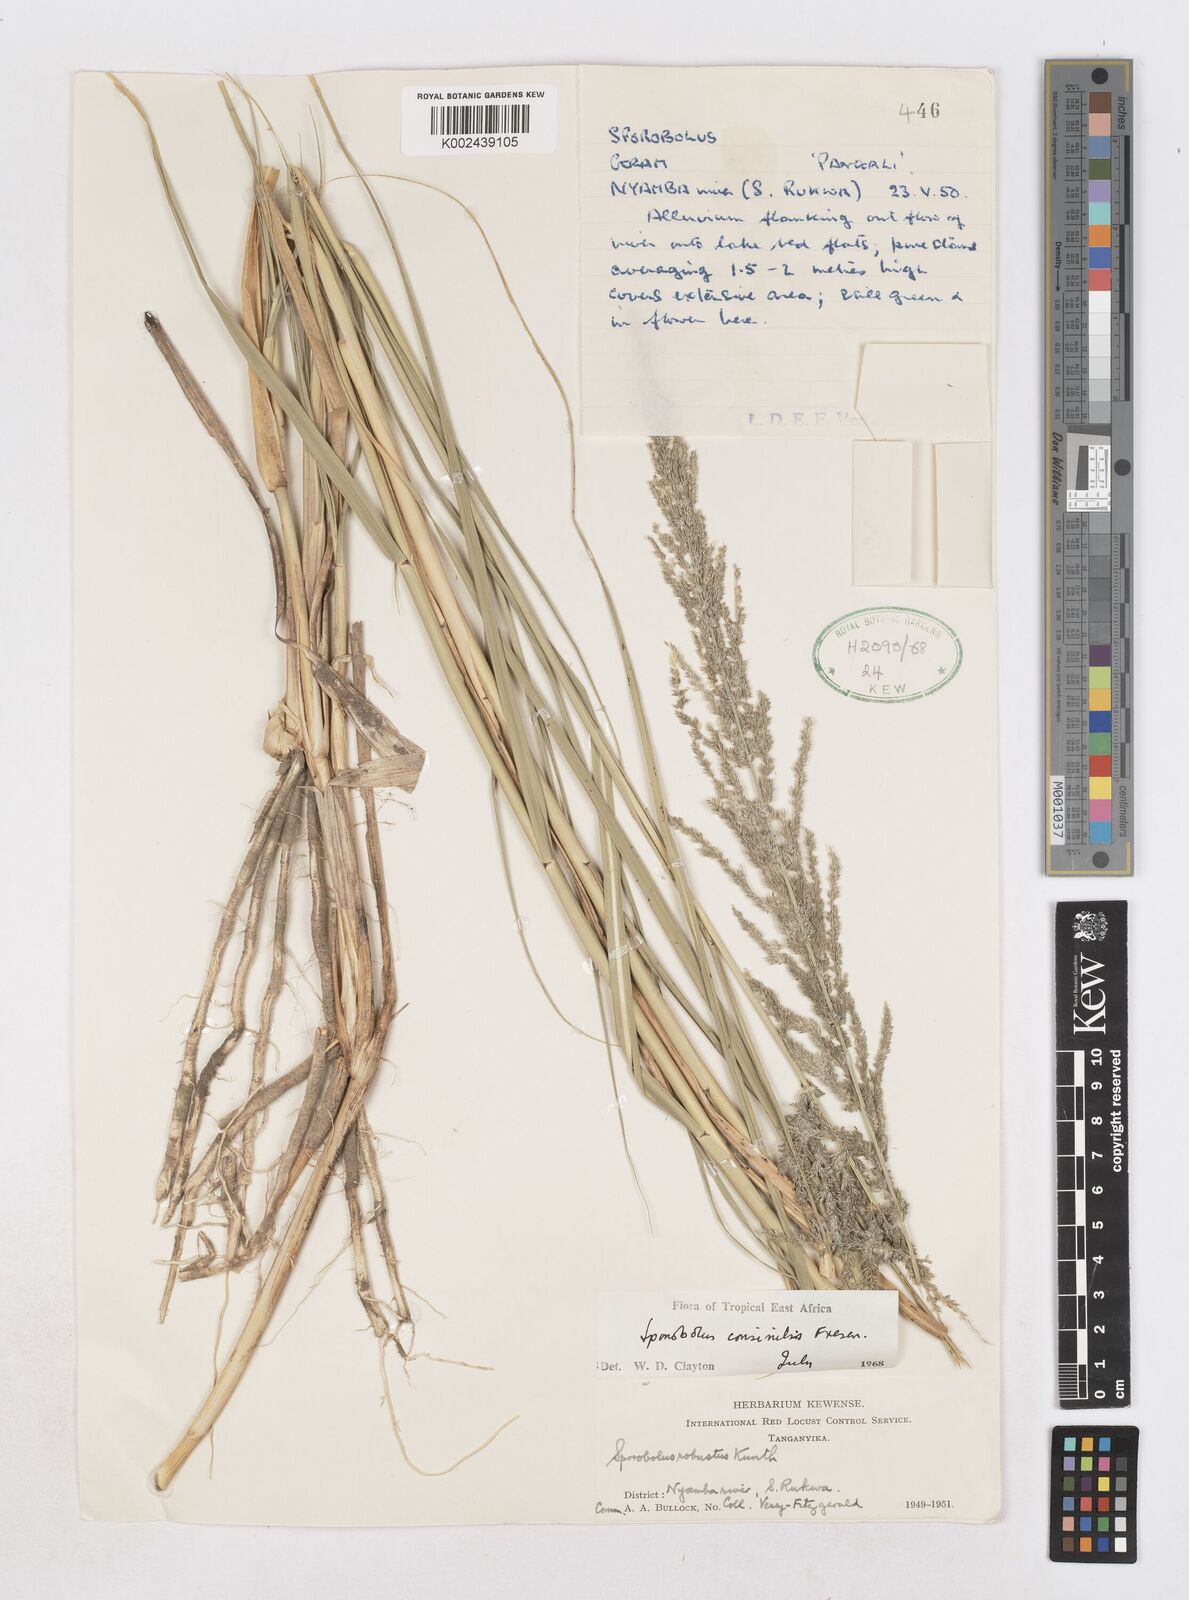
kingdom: Plantae
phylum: Tracheophyta
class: Liliopsida
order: Poales
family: Poaceae
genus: Sporobolus
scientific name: Sporobolus consimilis
